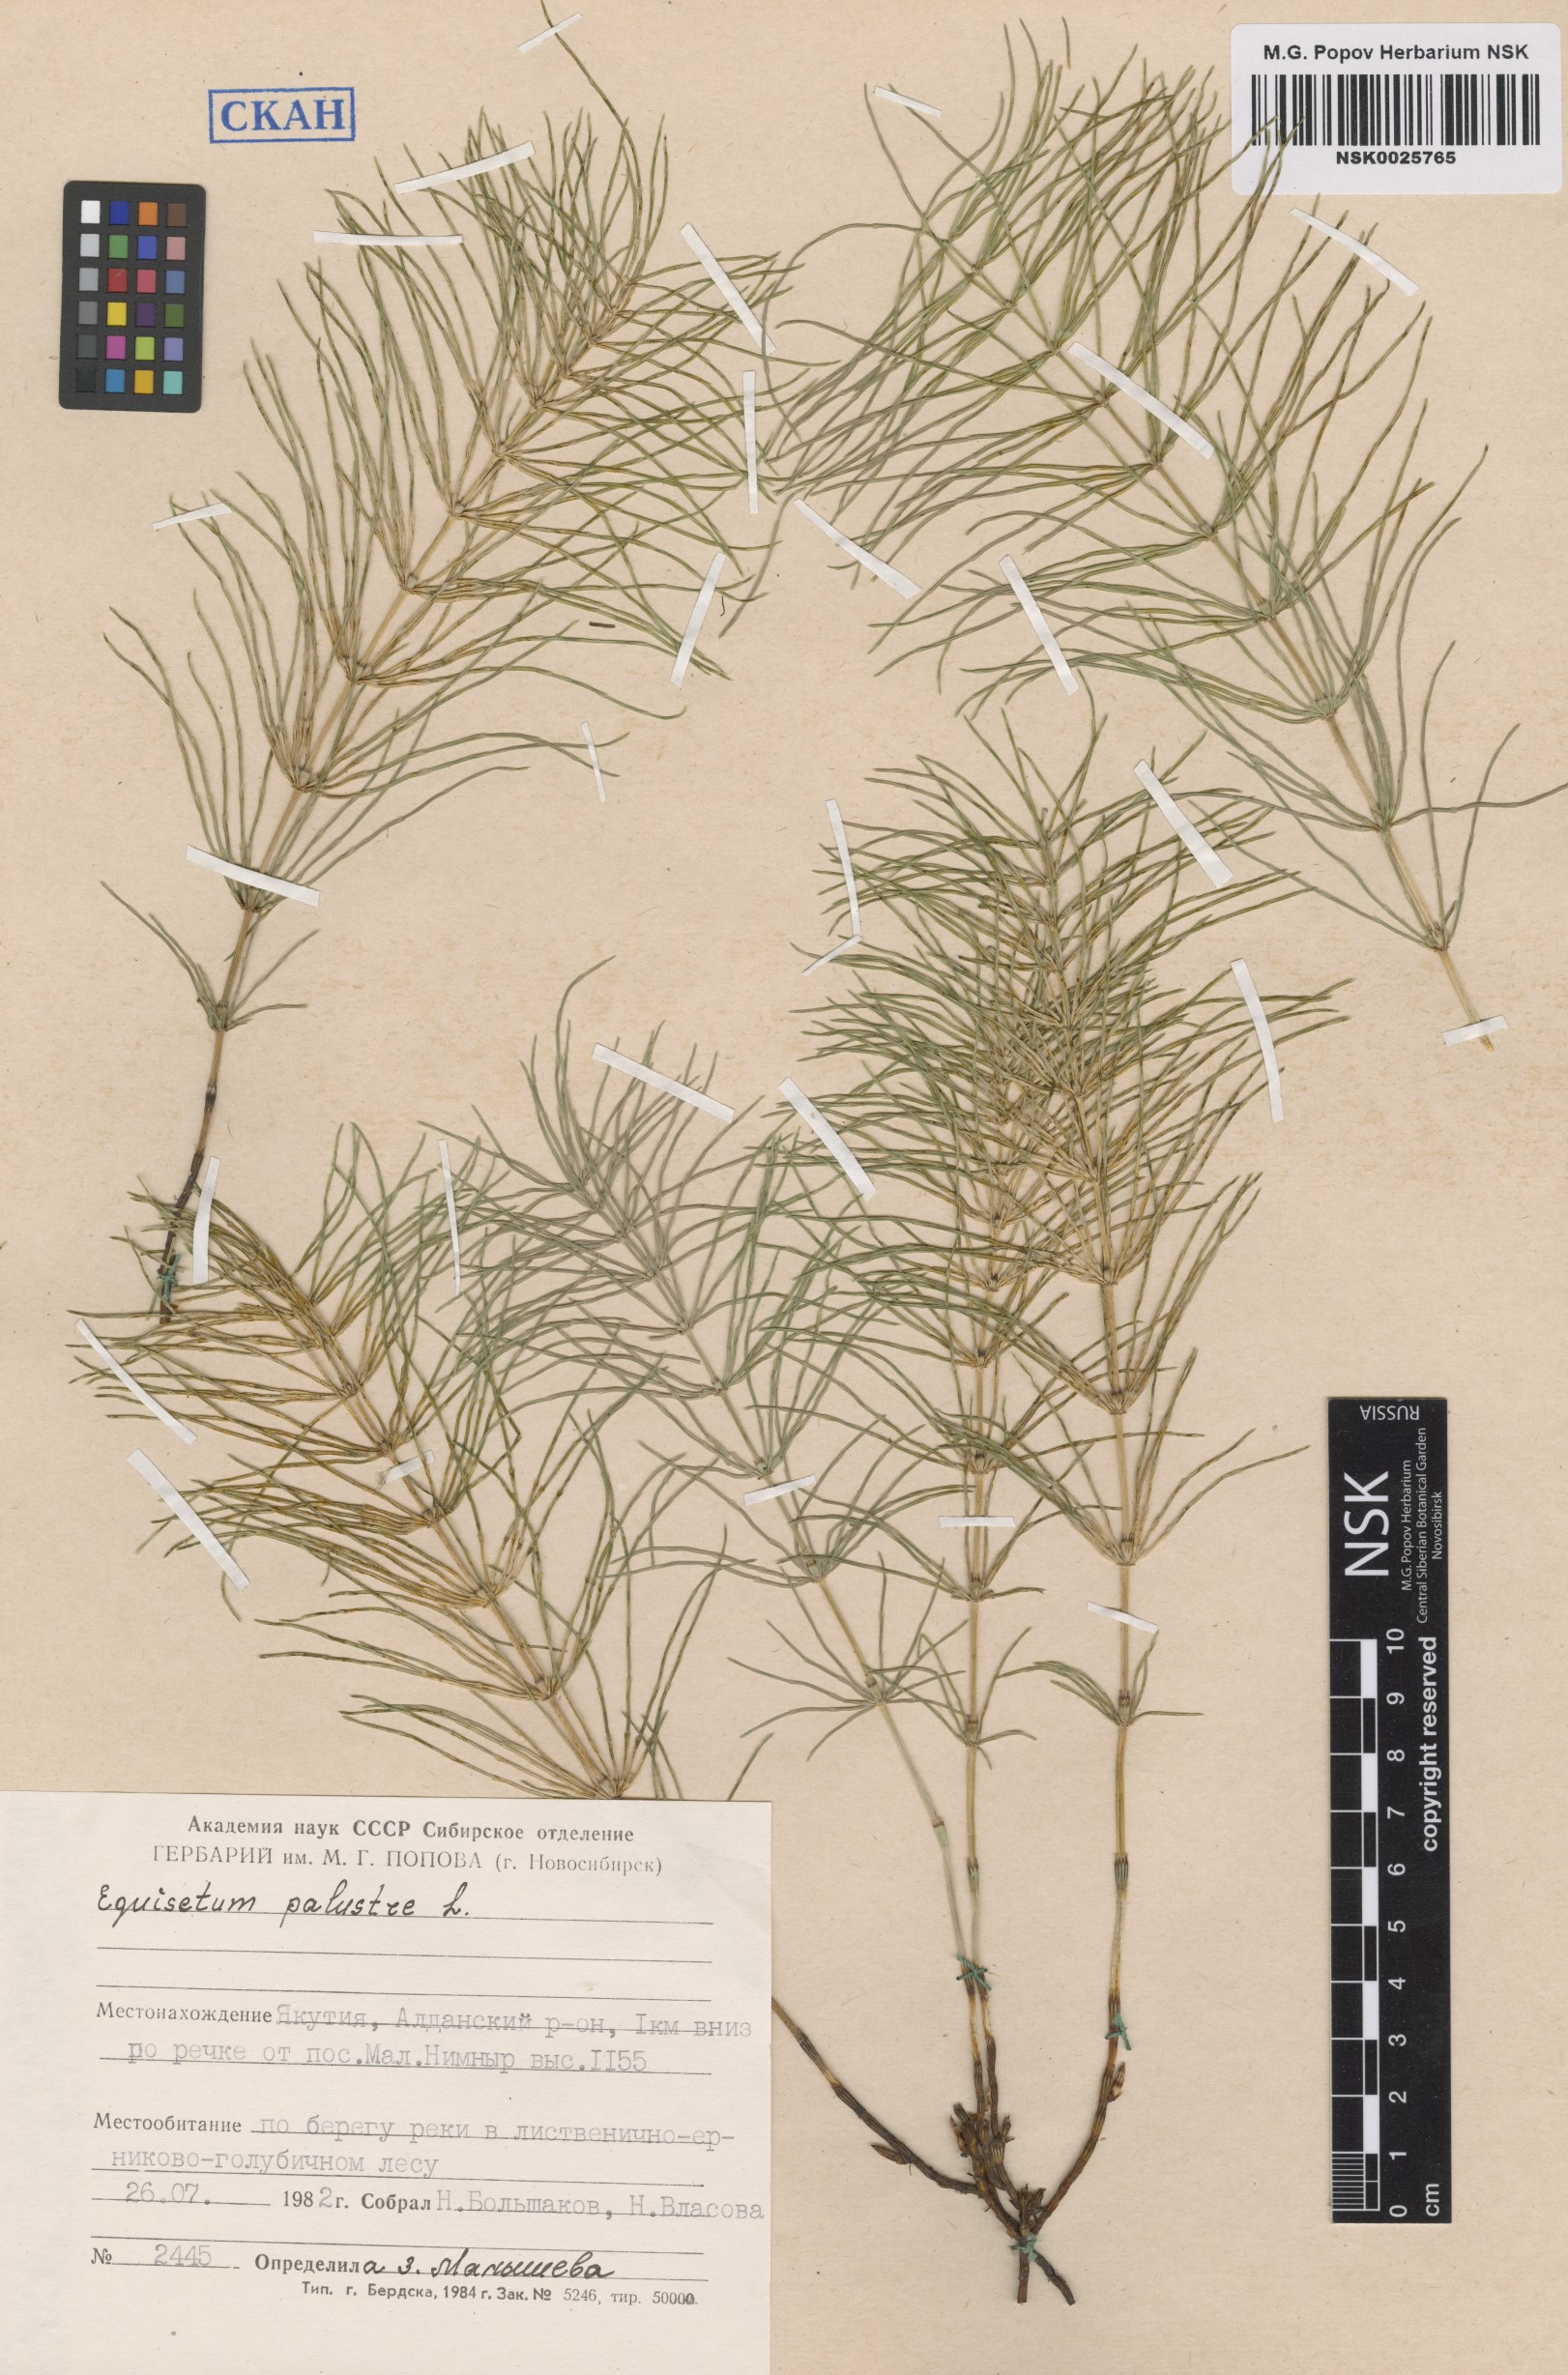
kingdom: Plantae
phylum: Tracheophyta
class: Polypodiopsida
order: Equisetales
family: Equisetaceae
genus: Equisetum
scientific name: Equisetum palustre
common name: Marsh horsetail
